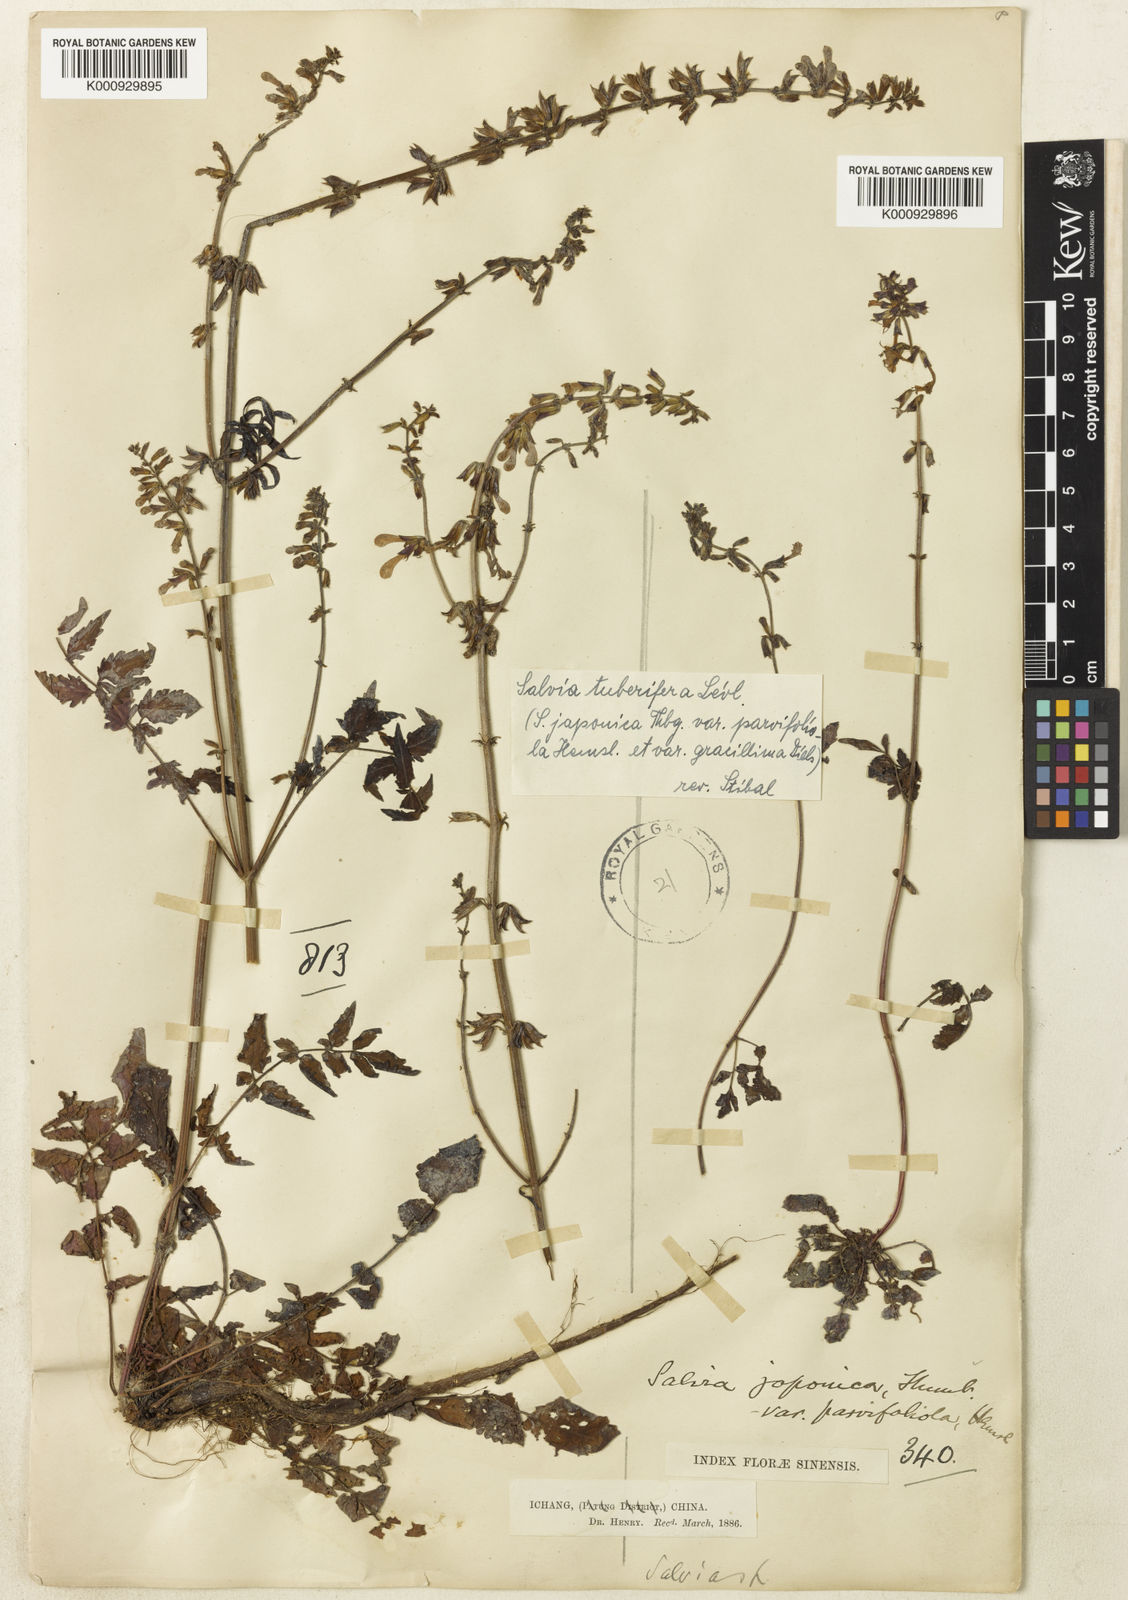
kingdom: Plantae
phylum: Tracheophyta
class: Magnoliopsida
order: Lamiales
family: Lamiaceae
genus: Salvia
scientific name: Salvia
